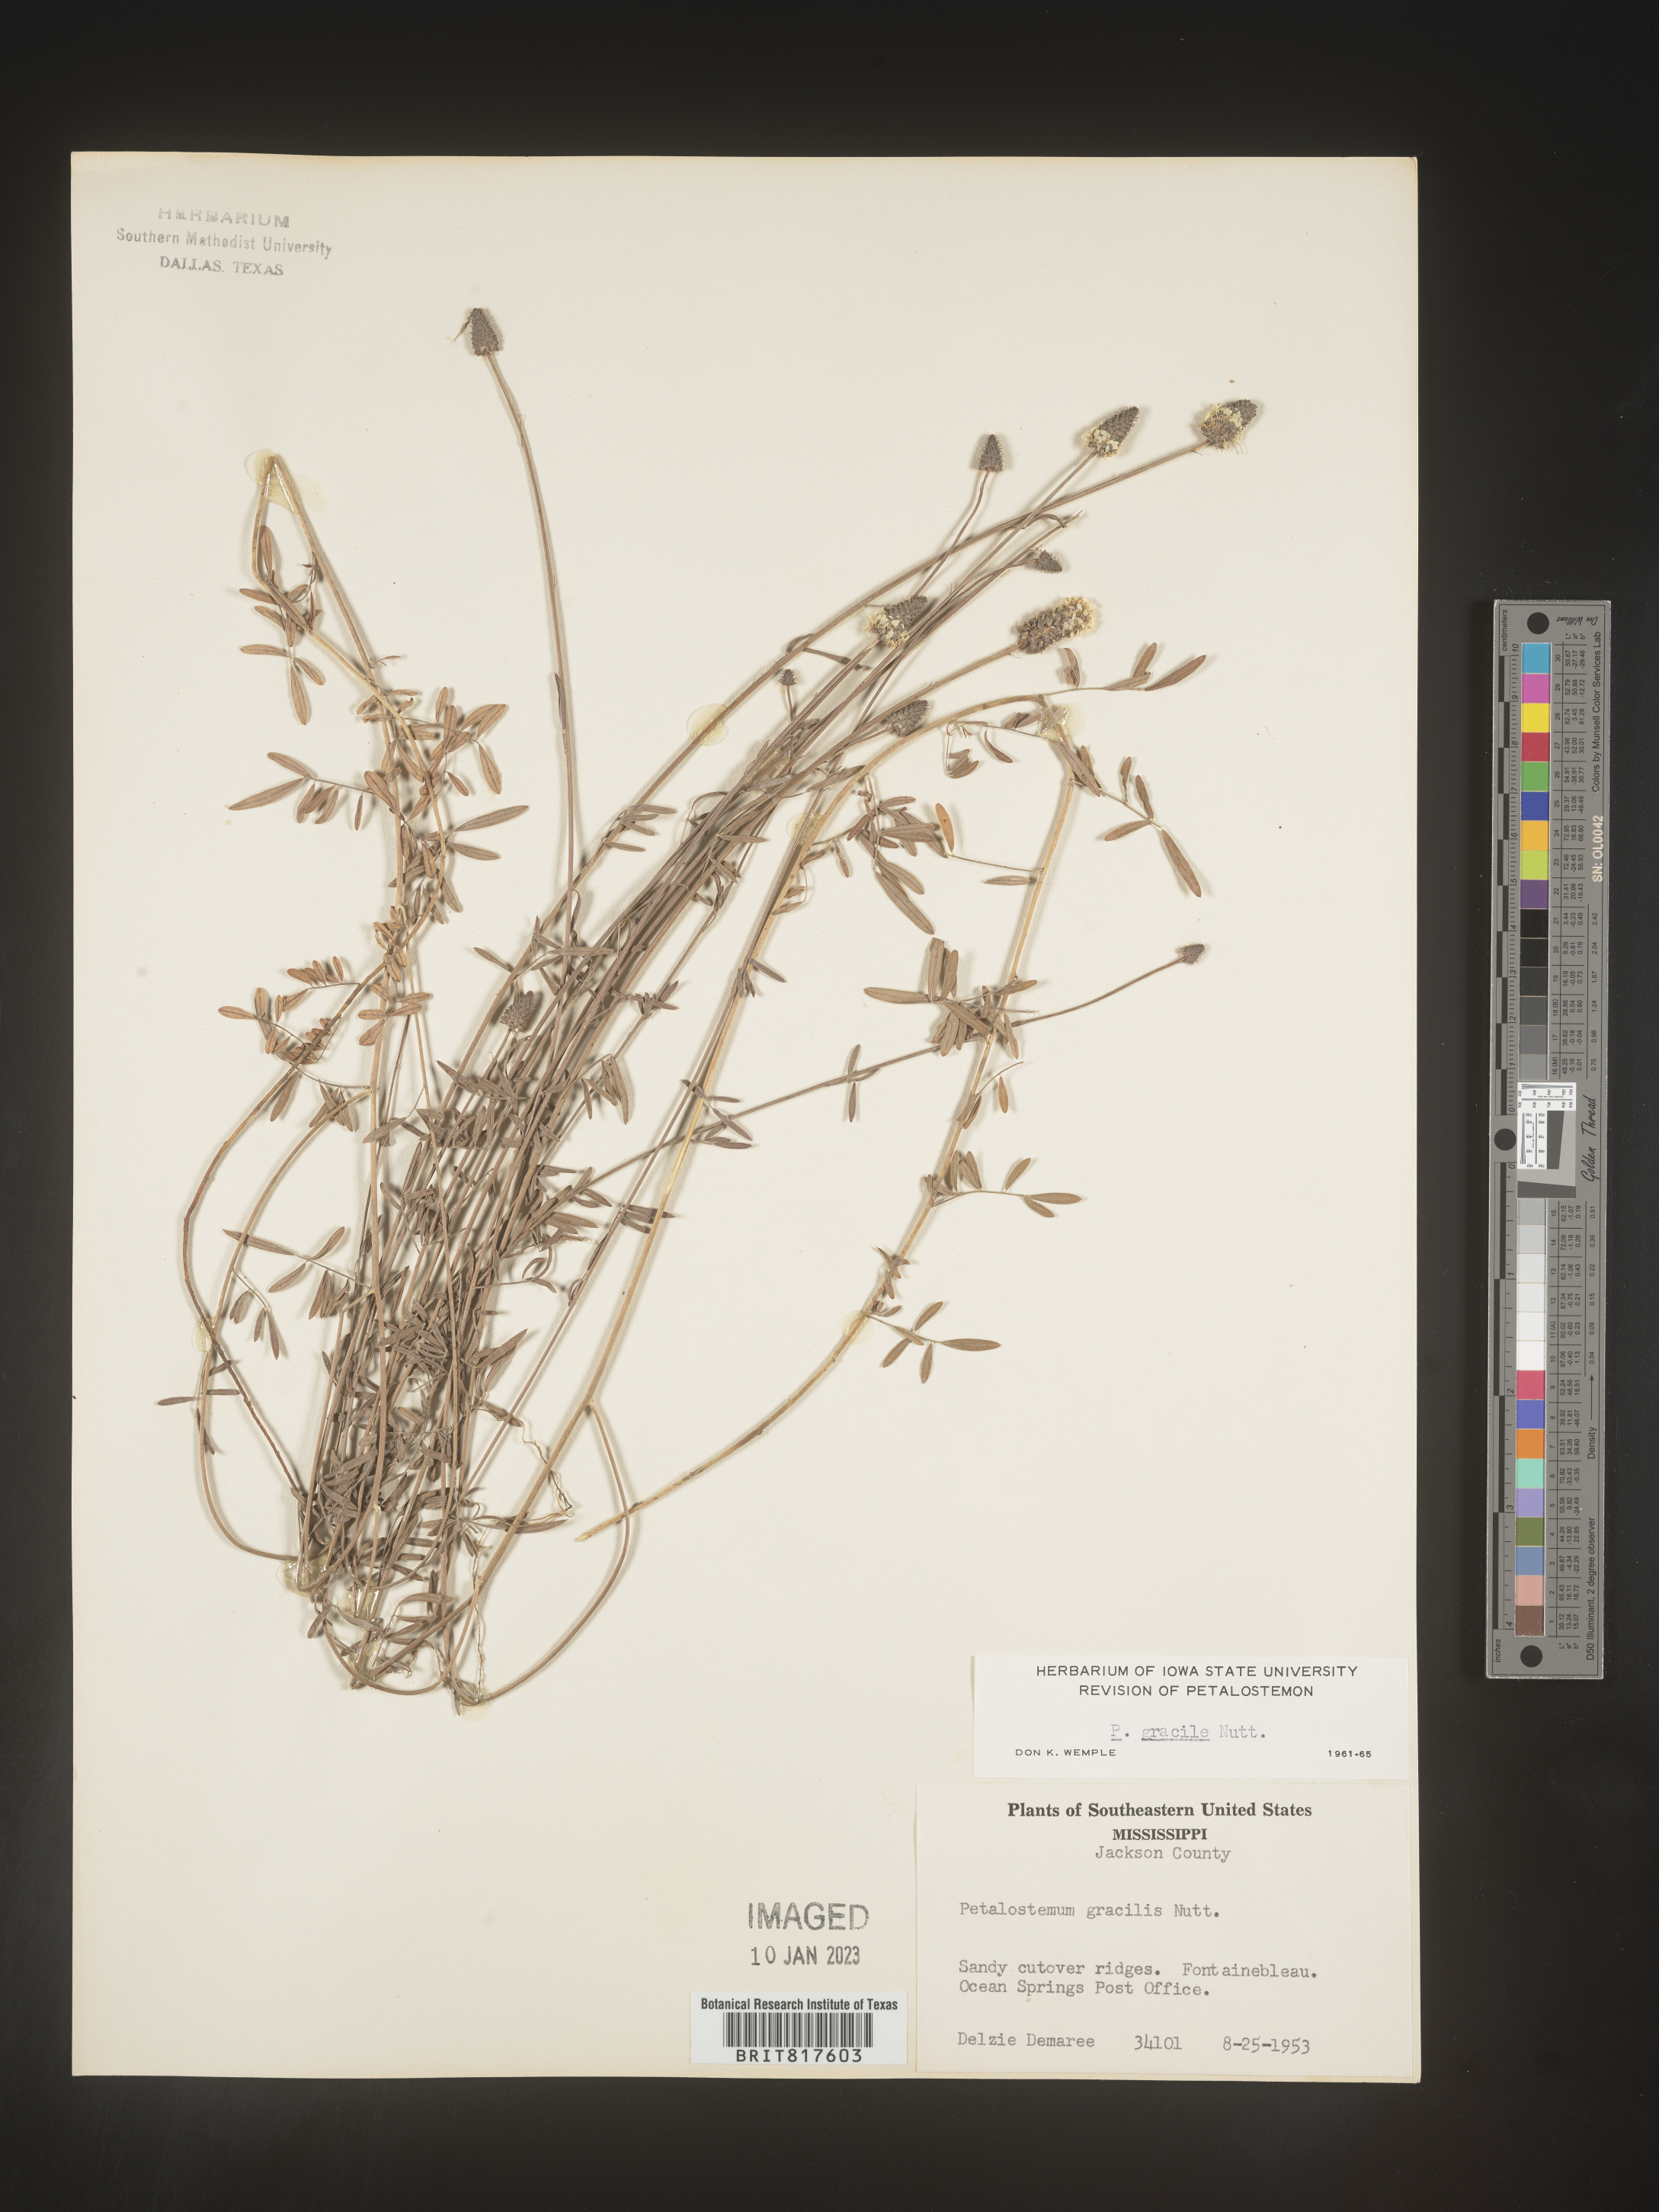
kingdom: Plantae
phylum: Tracheophyta
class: Magnoliopsida
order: Fabales
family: Fabaceae
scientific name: Fabaceae
